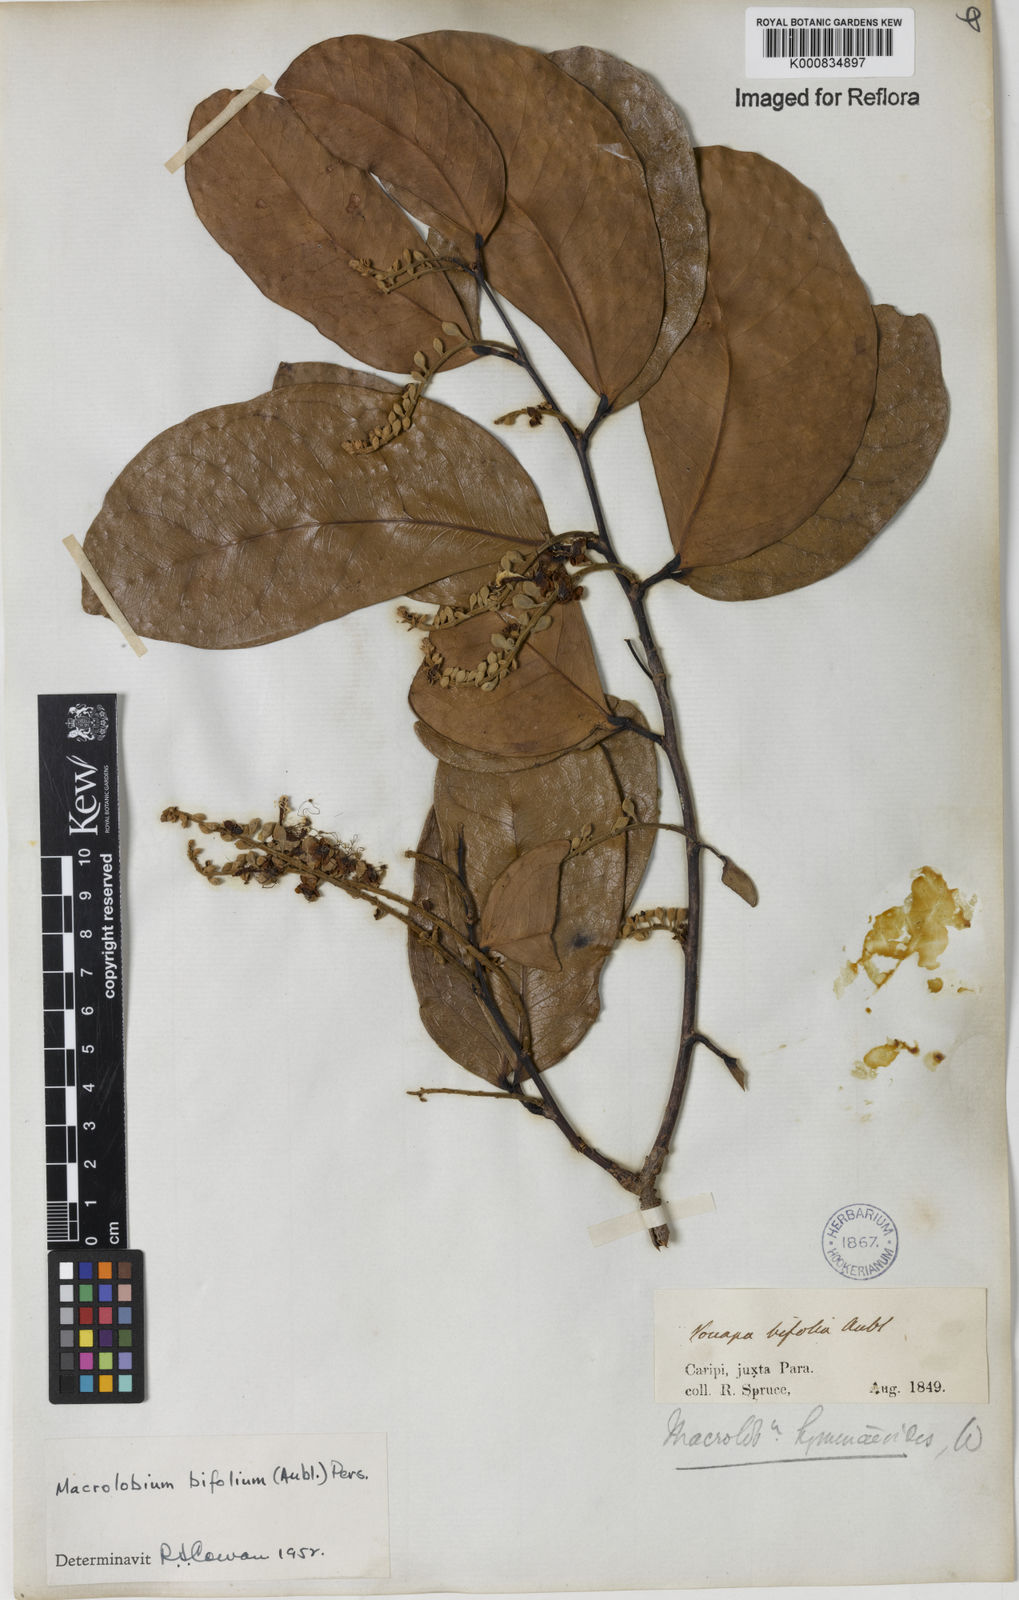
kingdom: Plantae
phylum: Tracheophyta
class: Magnoliopsida
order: Fabales
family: Fabaceae
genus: Macrolobium
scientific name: Macrolobium bifolium
